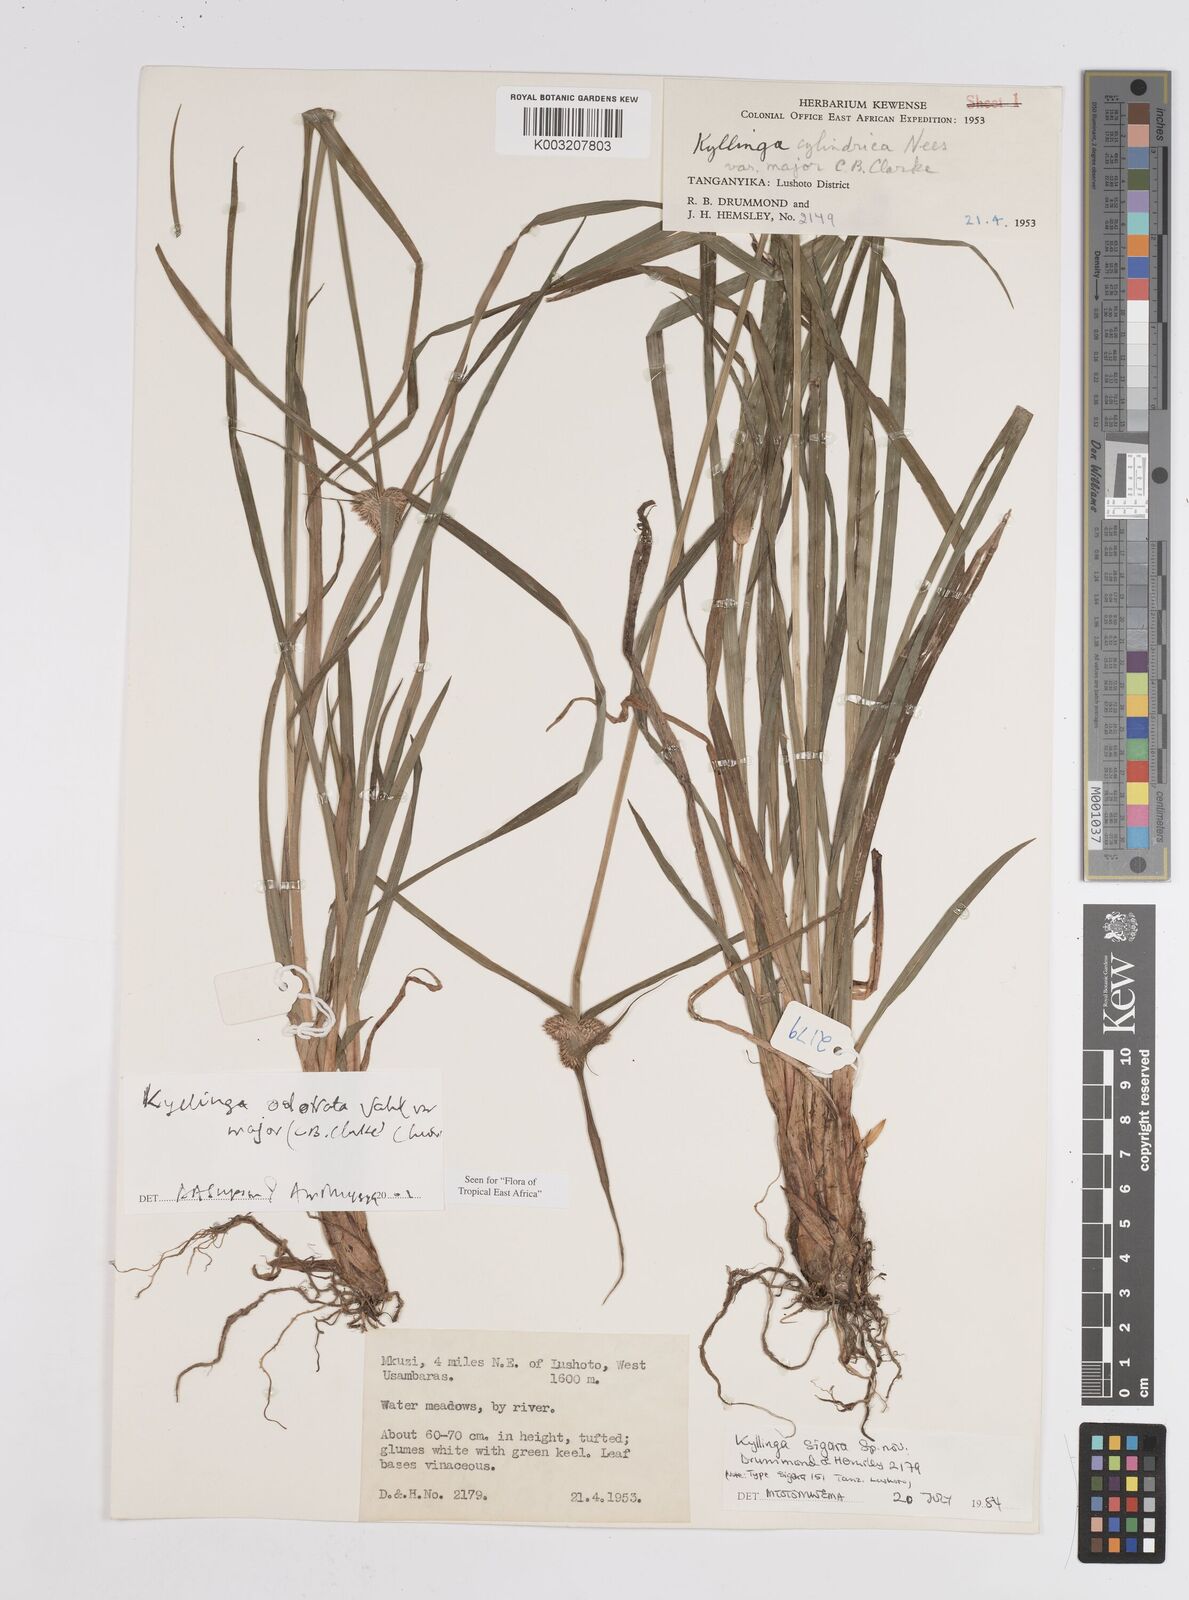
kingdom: Plantae
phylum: Tracheophyta
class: Liliopsida
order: Poales
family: Cyperaceae
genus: Cyperus
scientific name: Cyperus
